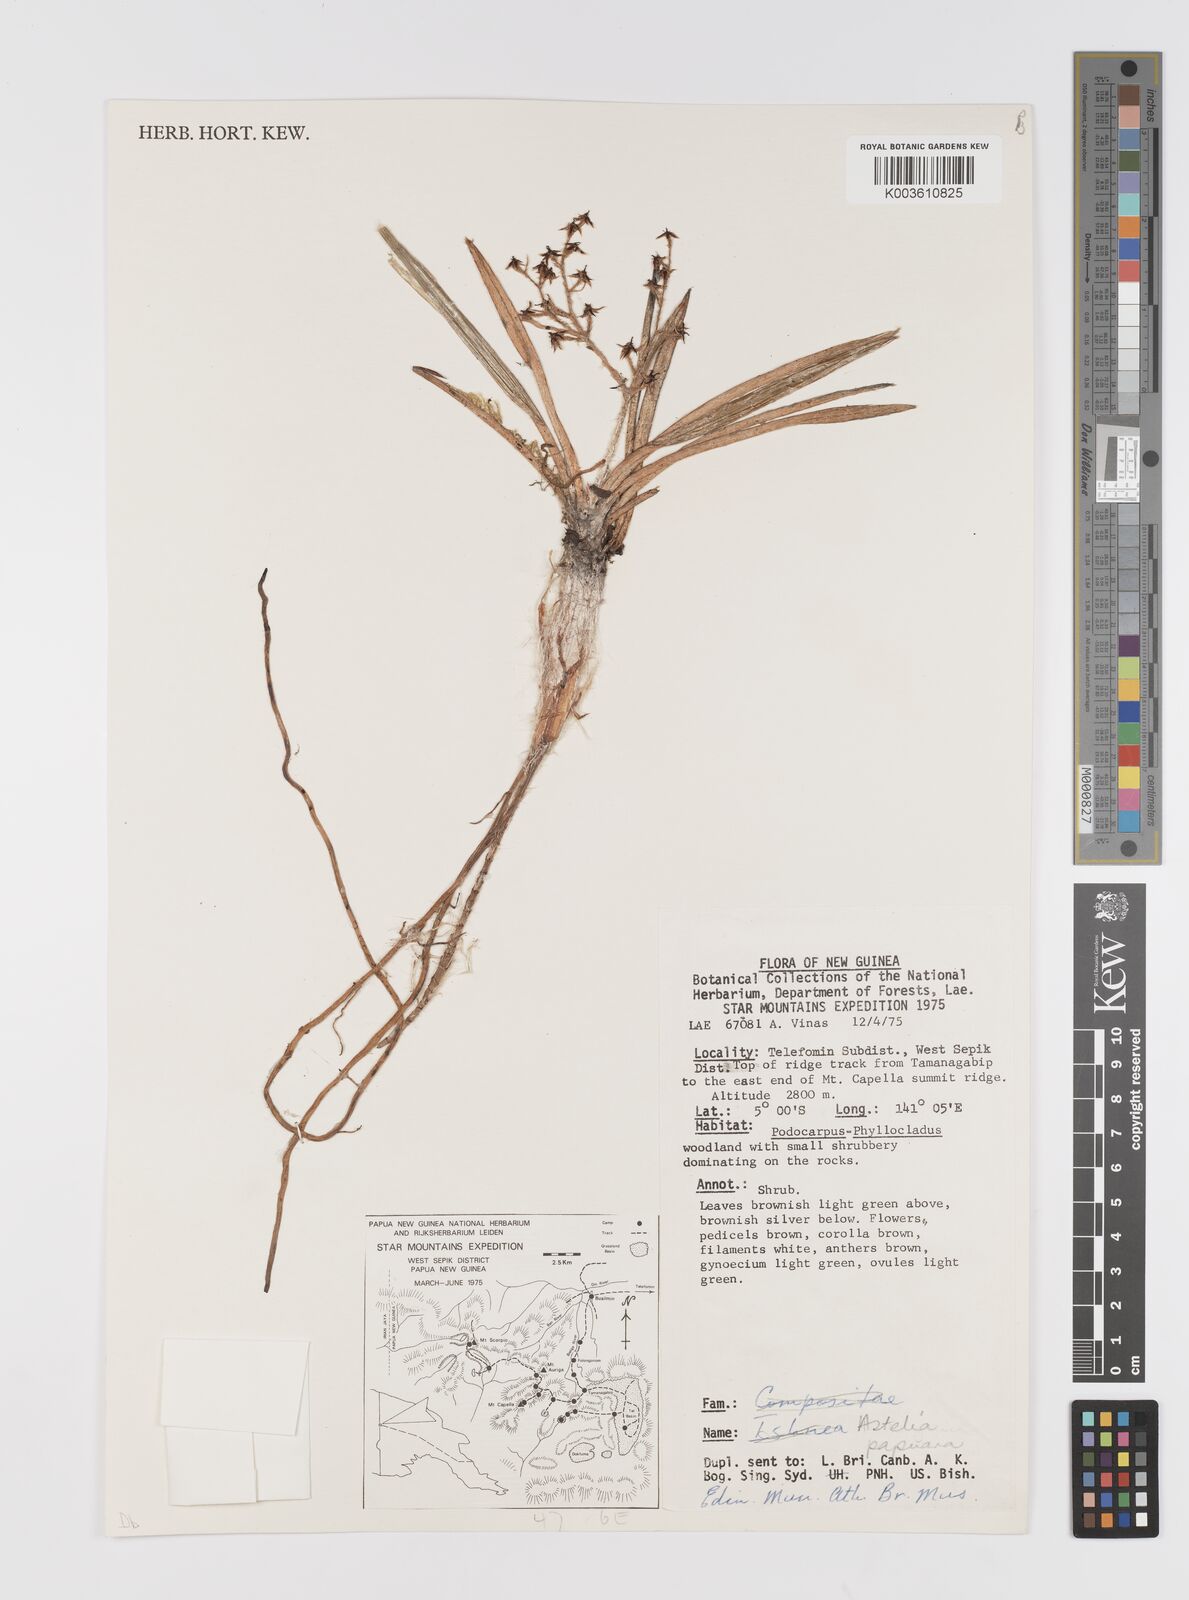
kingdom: Plantae
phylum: Tracheophyta
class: Liliopsida
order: Asparagales
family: Asteliaceae
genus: Astelia
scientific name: Astelia papuana
